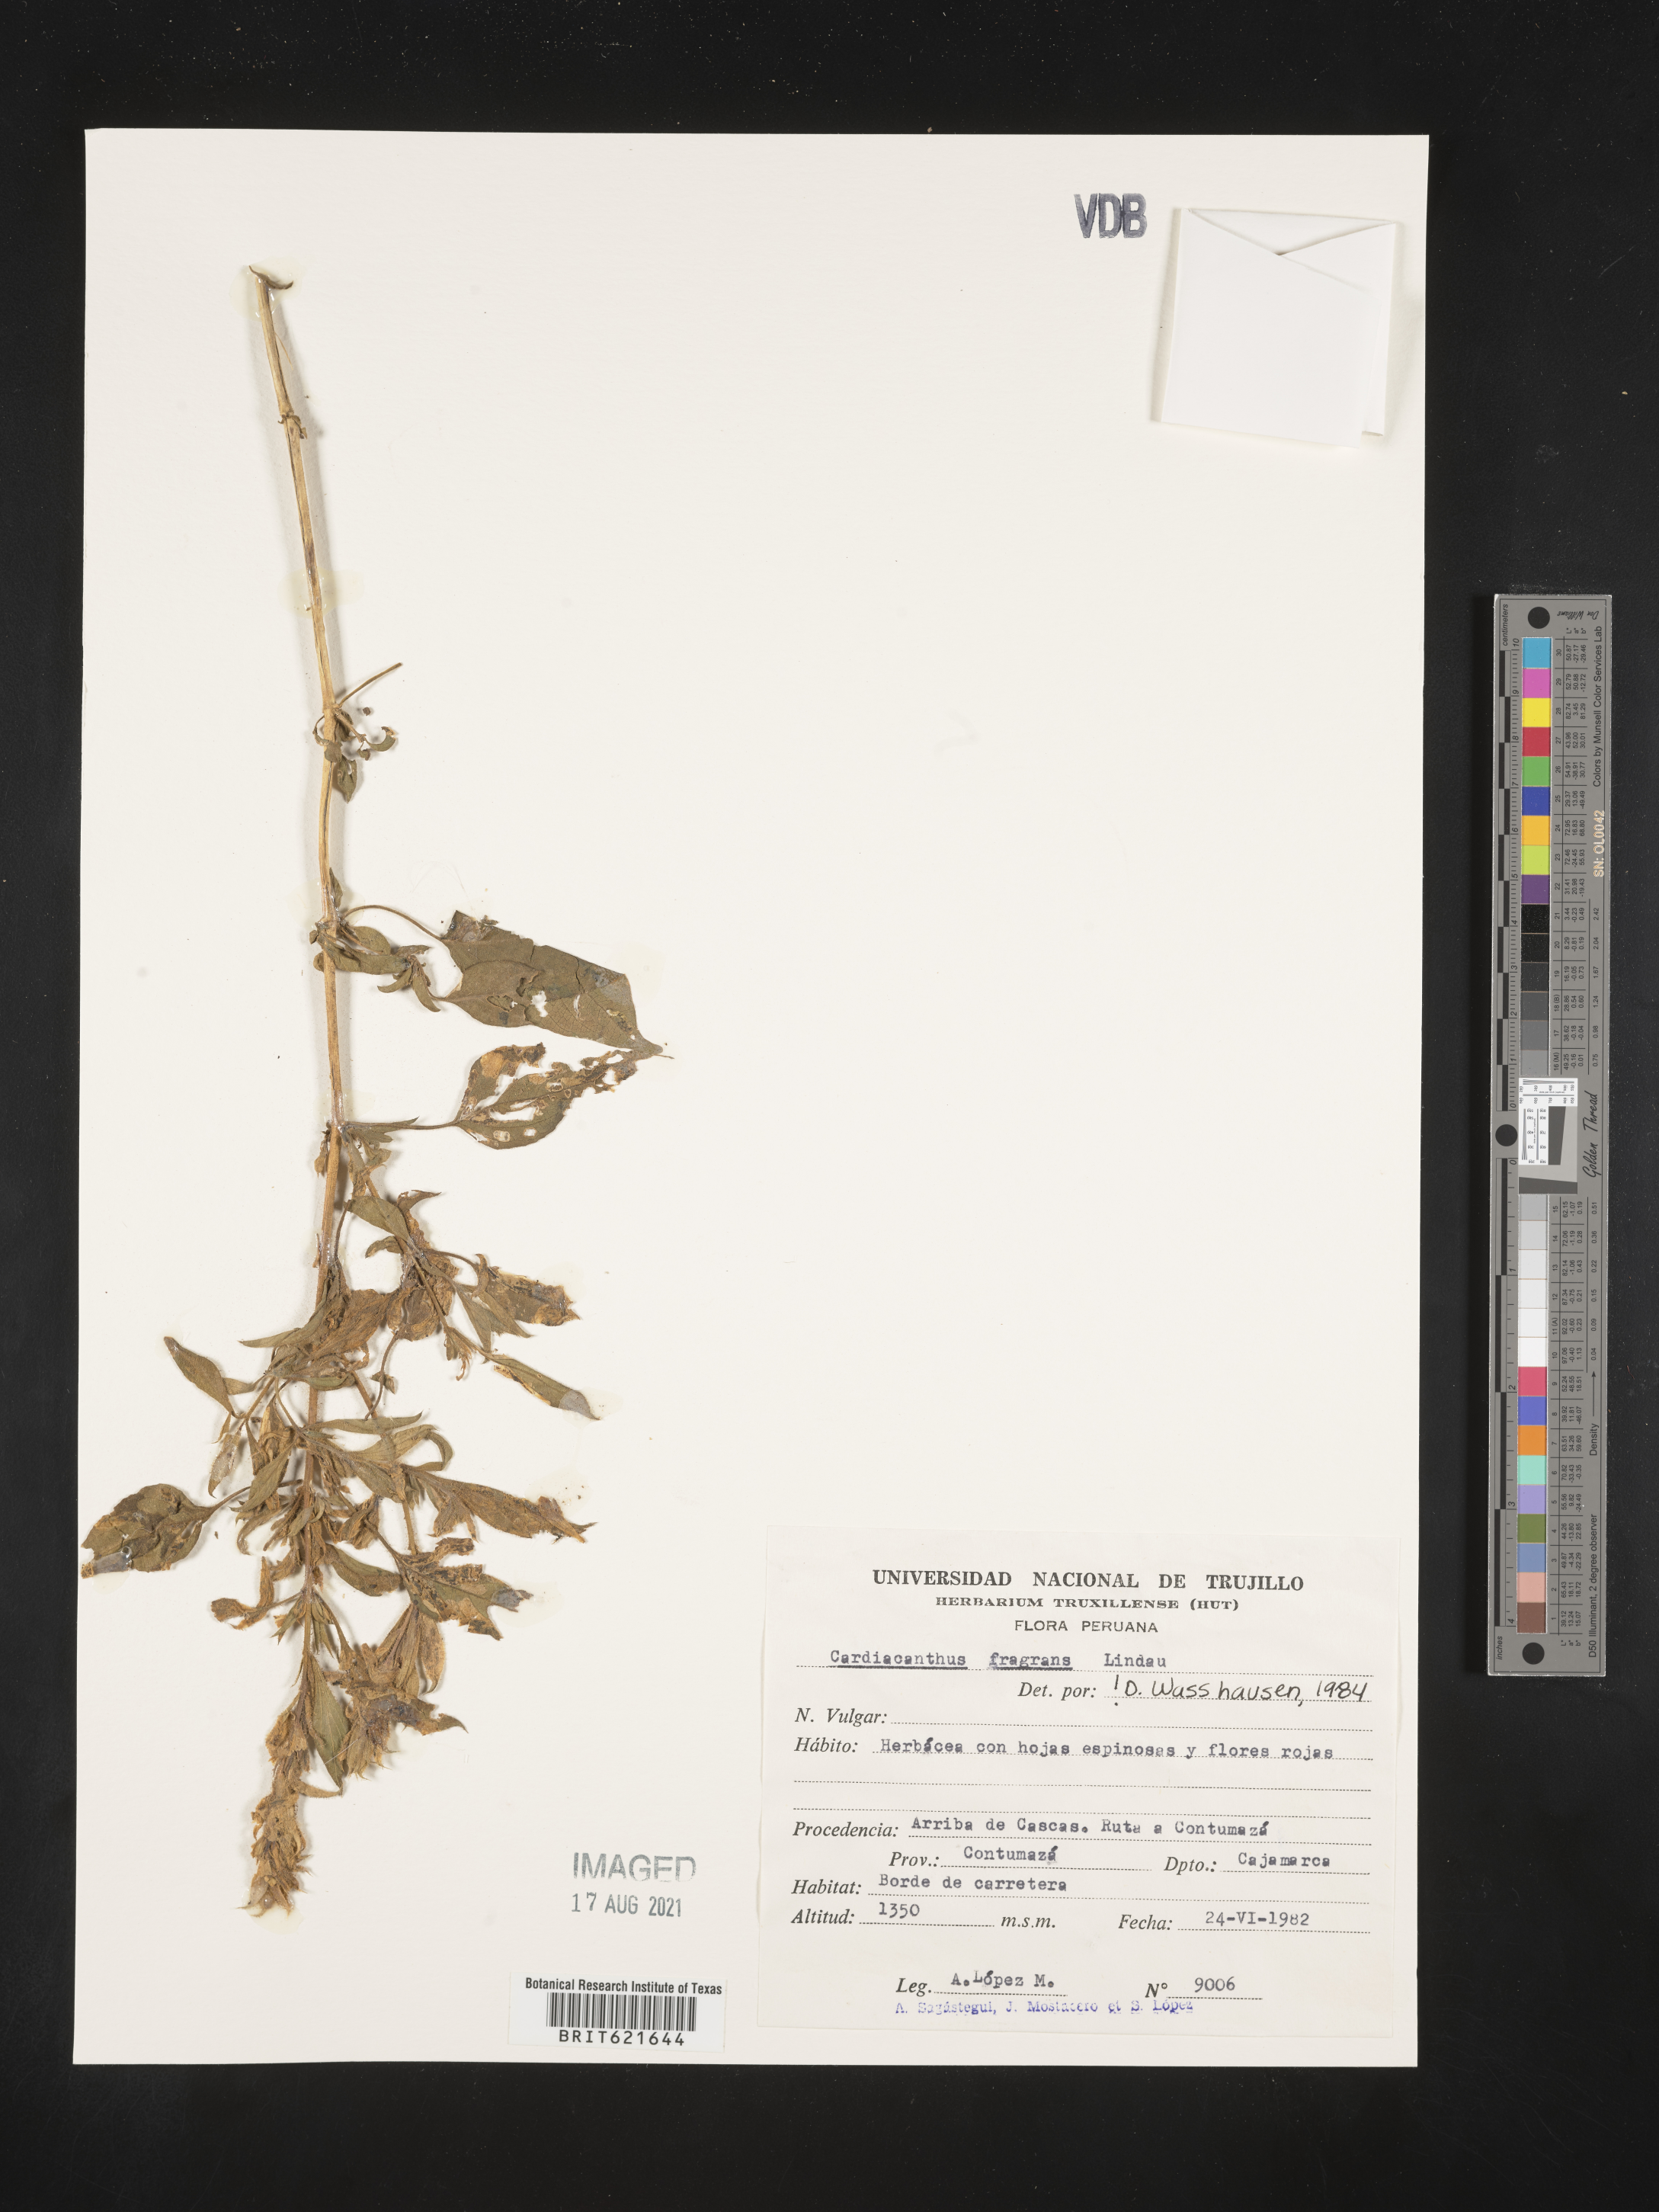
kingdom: Plantae
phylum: Tracheophyta
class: Magnoliopsida
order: Lamiales
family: Acanthaceae
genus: Tetramerium
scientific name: Tetramerium glandulosum
